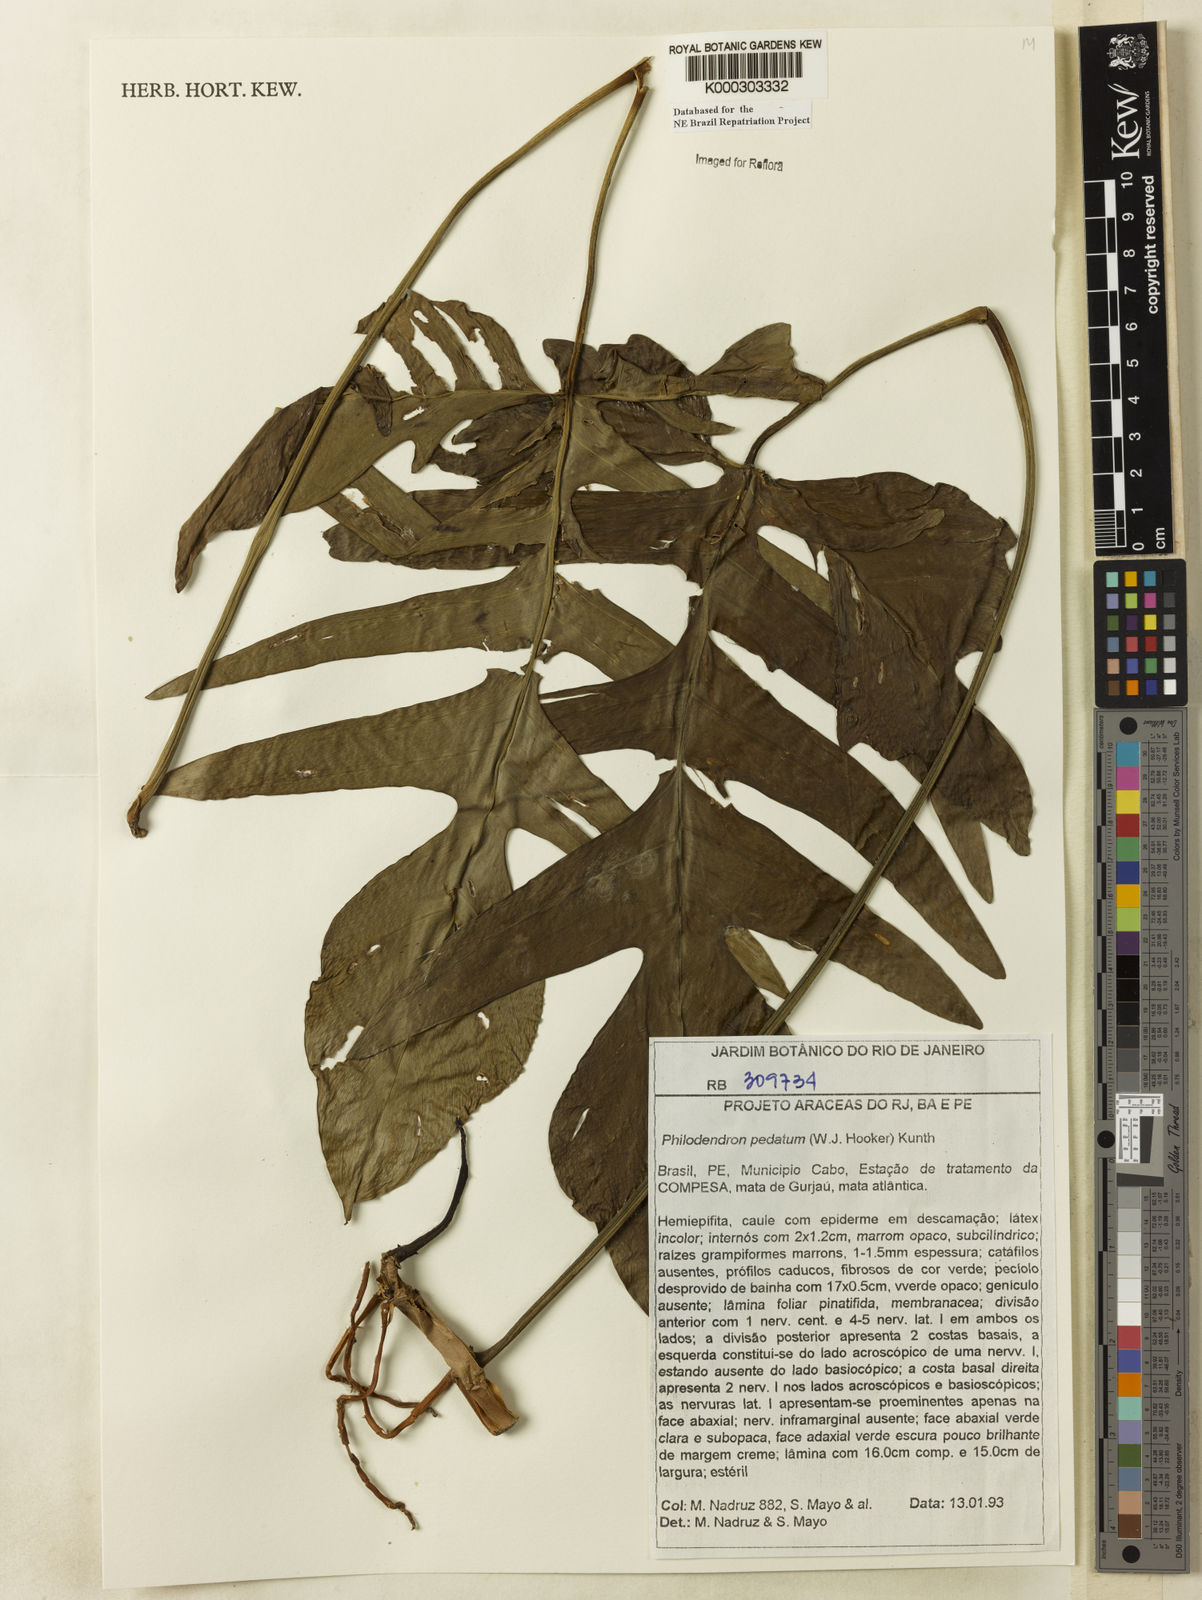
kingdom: Plantae
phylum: Tracheophyta
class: Liliopsida
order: Alismatales
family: Araceae
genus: Philodendron
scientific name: Philodendron pedatum
